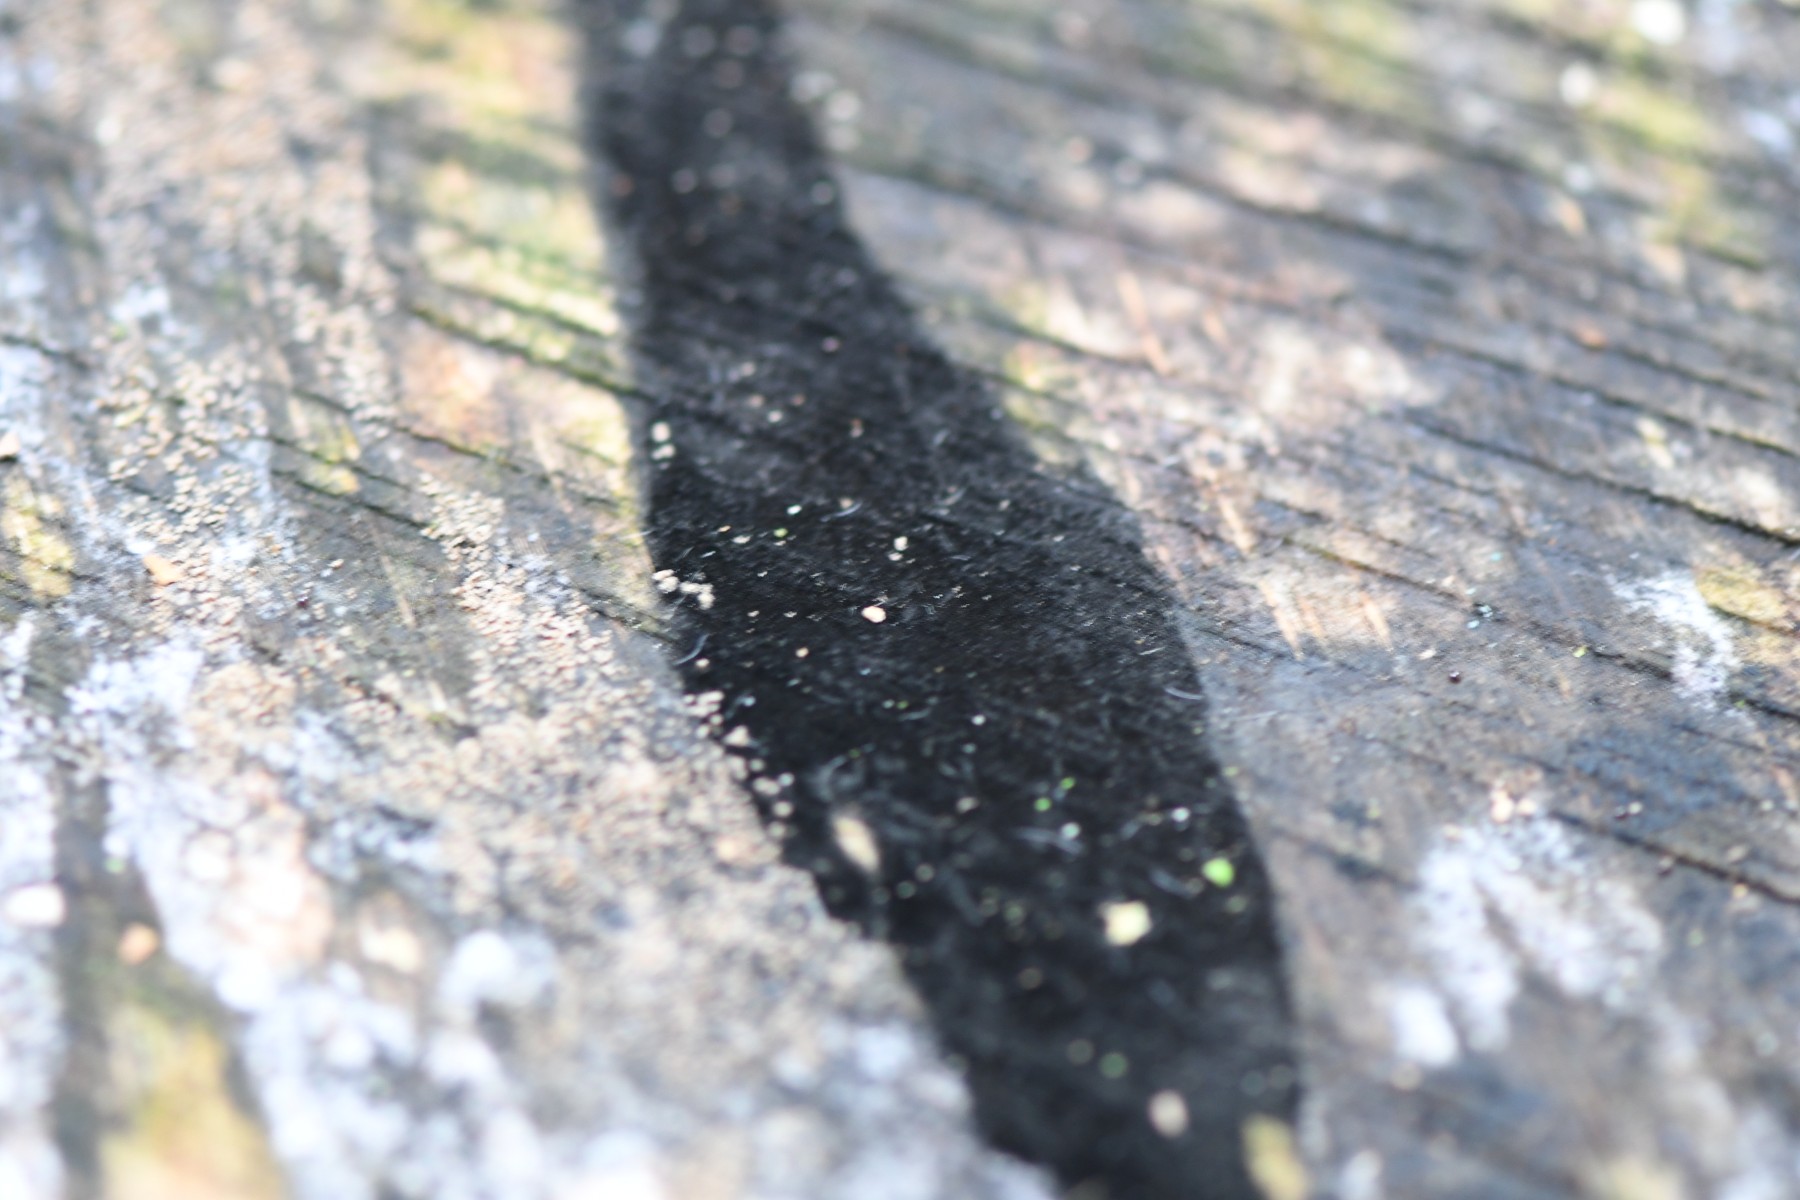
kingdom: Fungi
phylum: Ascomycota
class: Leotiomycetes
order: Helotiales
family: Helotiaceae
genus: Bispora
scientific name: Bispora pallescens
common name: måtte-snitskive
